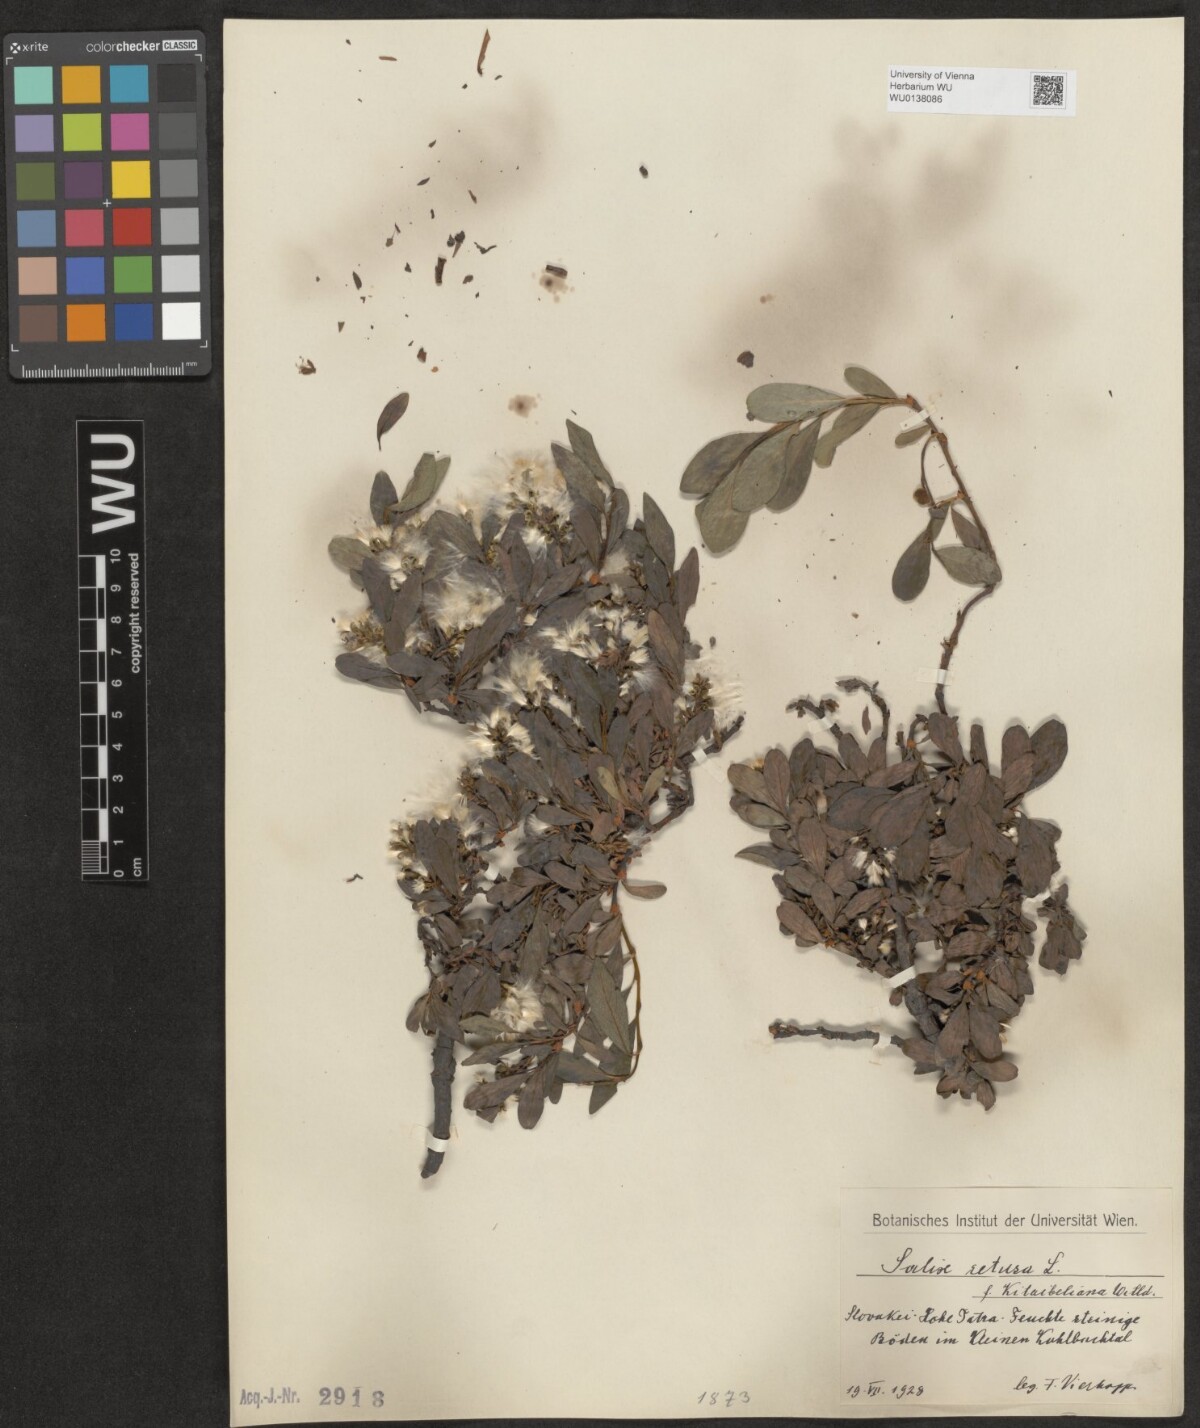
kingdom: Plantae
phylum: Tracheophyta
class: Magnoliopsida
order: Malpighiales
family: Salicaceae
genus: Salix
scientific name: Salix retusa
